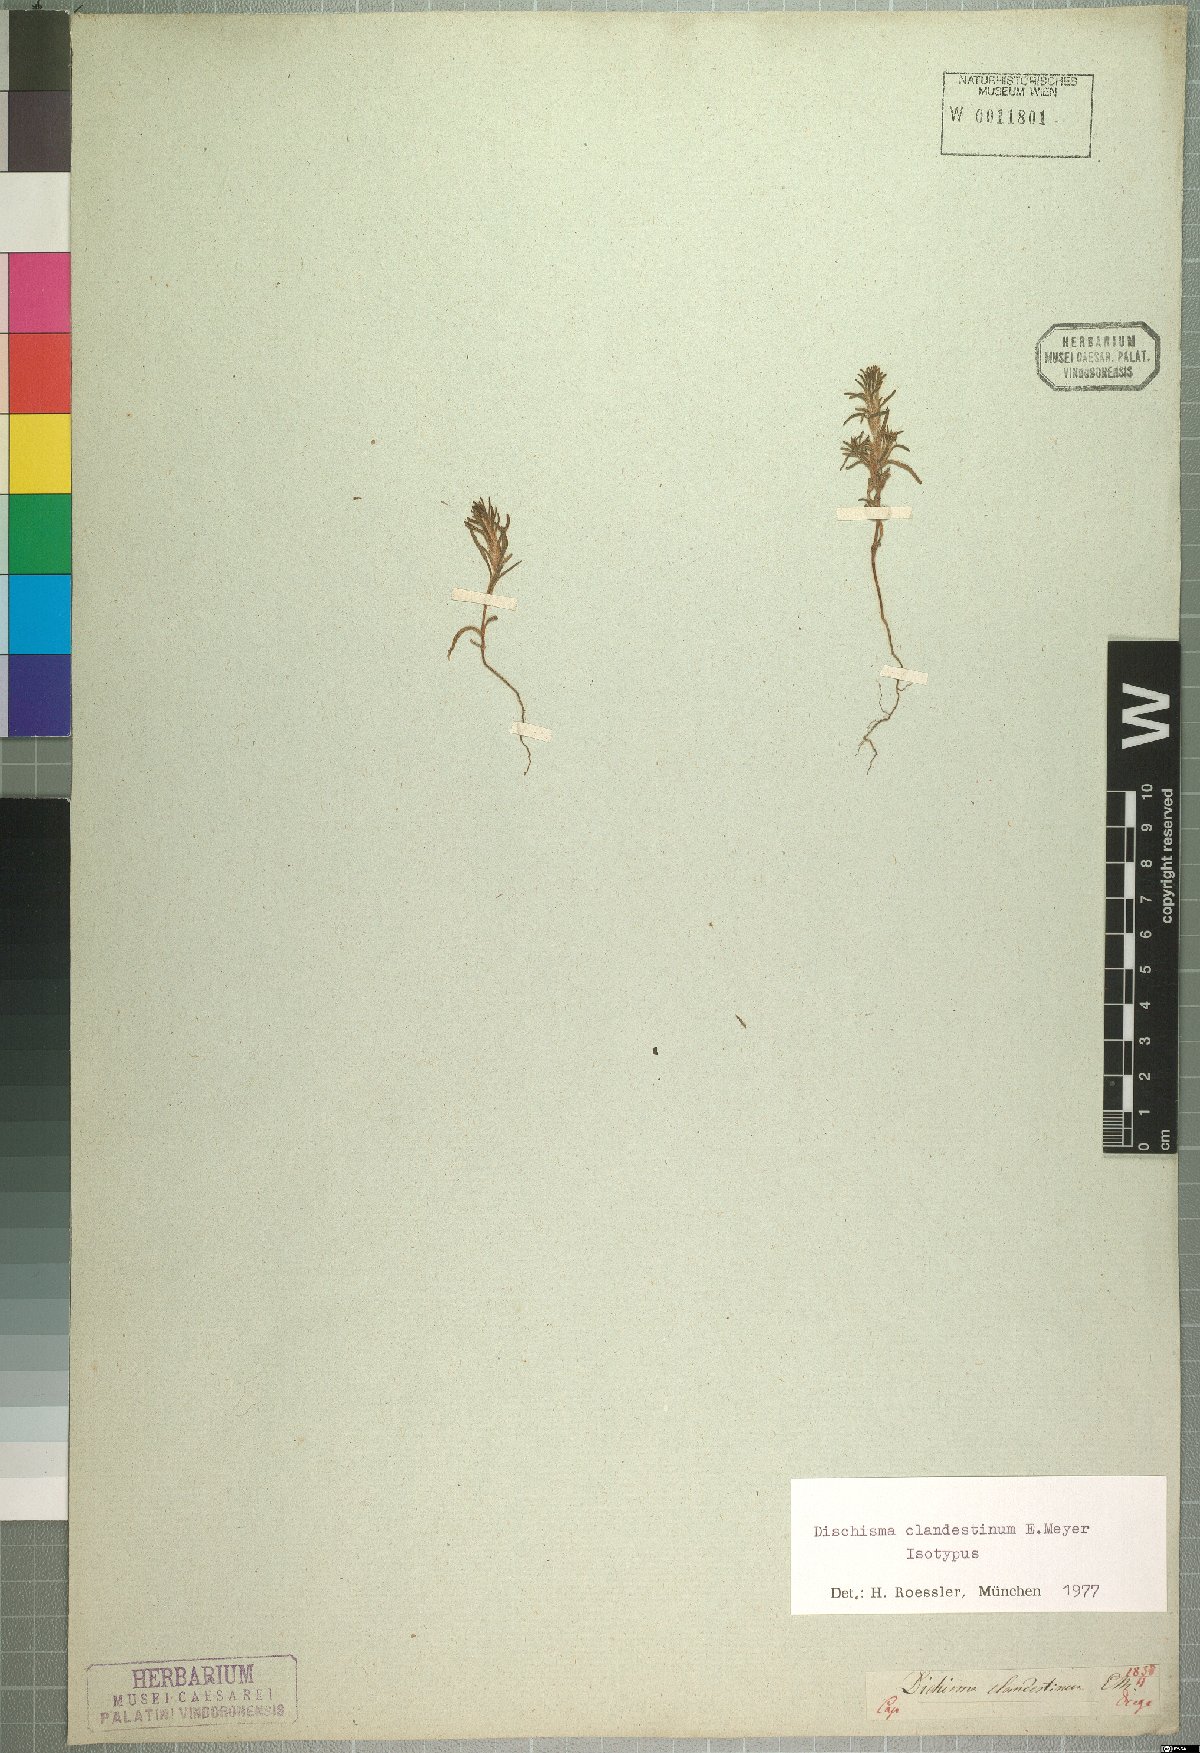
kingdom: Plantae
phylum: Tracheophyta
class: Magnoliopsida
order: Lamiales
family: Scrophulariaceae
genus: Dischisma
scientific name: Dischisma clandestinum
